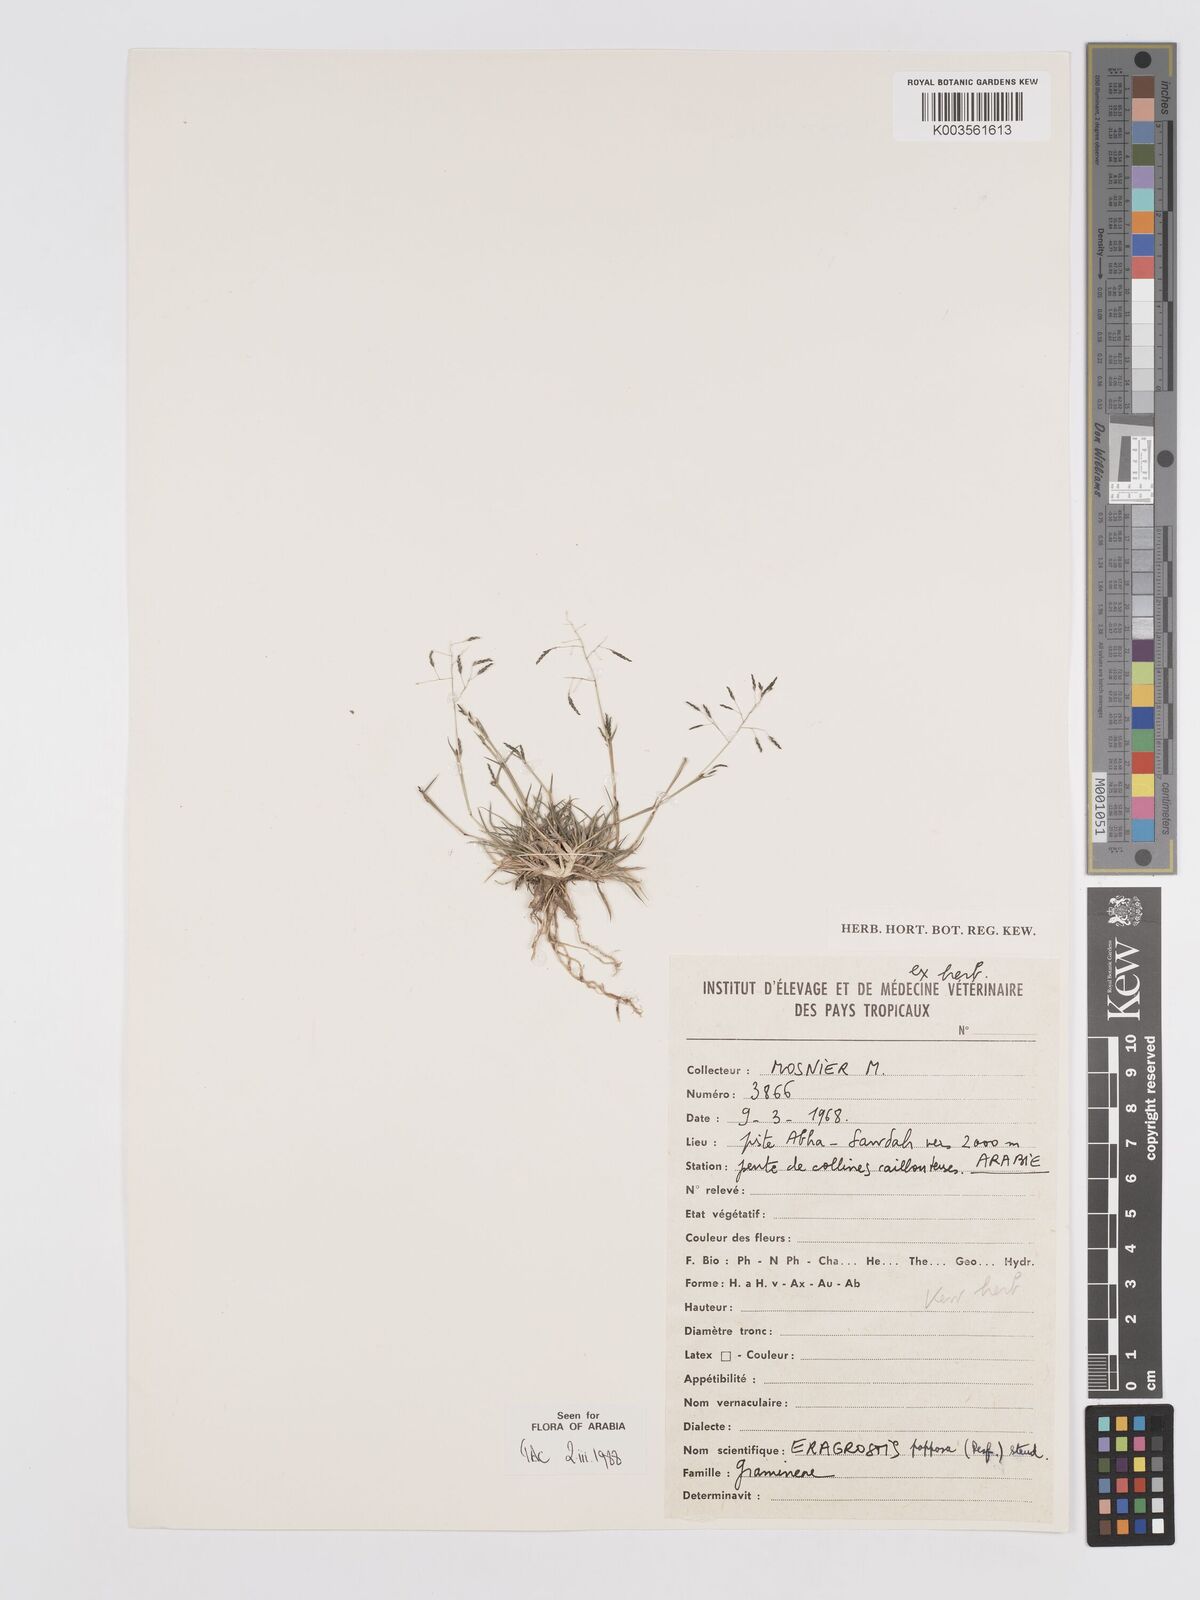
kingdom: Plantae
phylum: Tracheophyta
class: Liliopsida
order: Poales
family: Poaceae
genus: Eragrostis
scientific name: Eragrostis papposa
